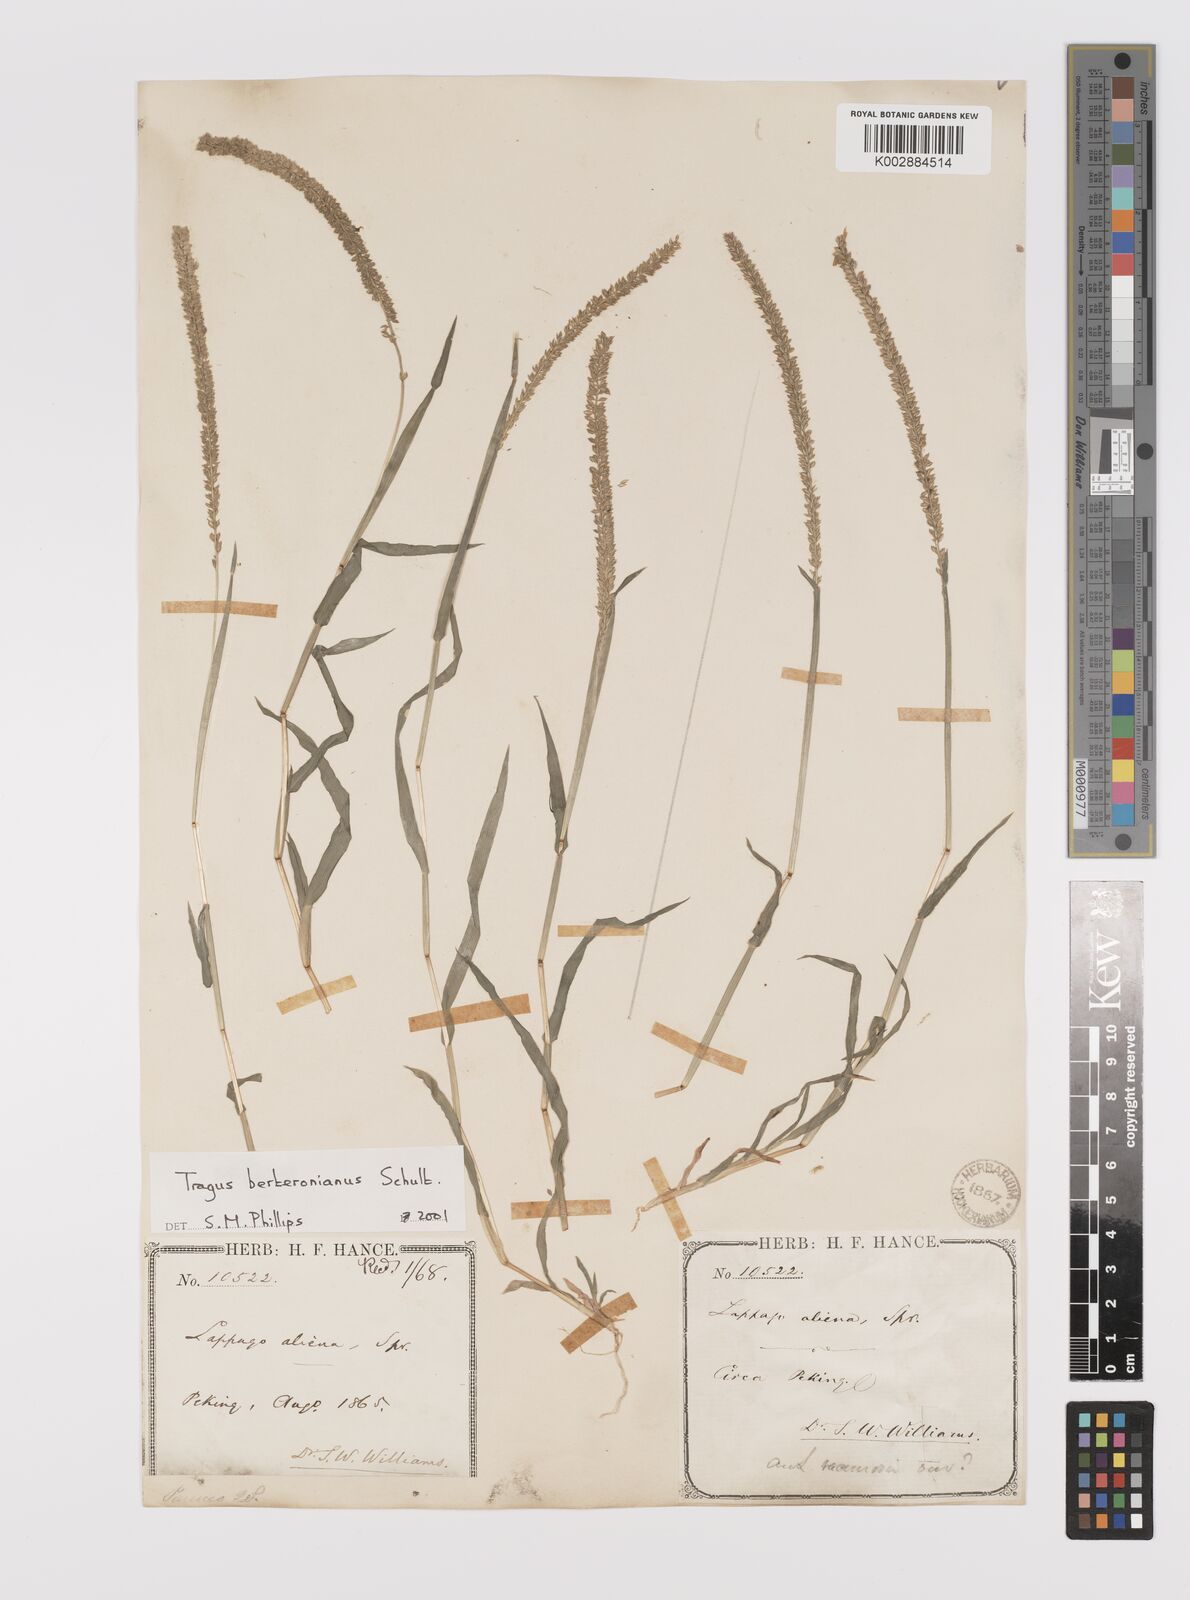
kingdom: Plantae
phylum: Tracheophyta
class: Liliopsida
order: Poales
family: Poaceae
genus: Tragus
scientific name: Tragus berteronianus
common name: African bur-grass
